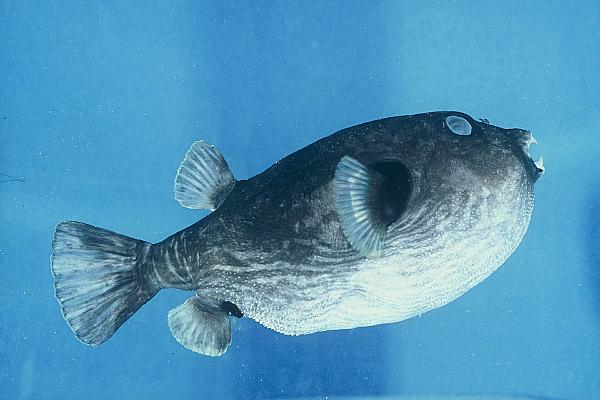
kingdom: Animalia
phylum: Chordata
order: Tetraodontiformes
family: Tetraodontidae
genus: Arothron
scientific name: Arothron inconditus
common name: Bellystriped blaasop
